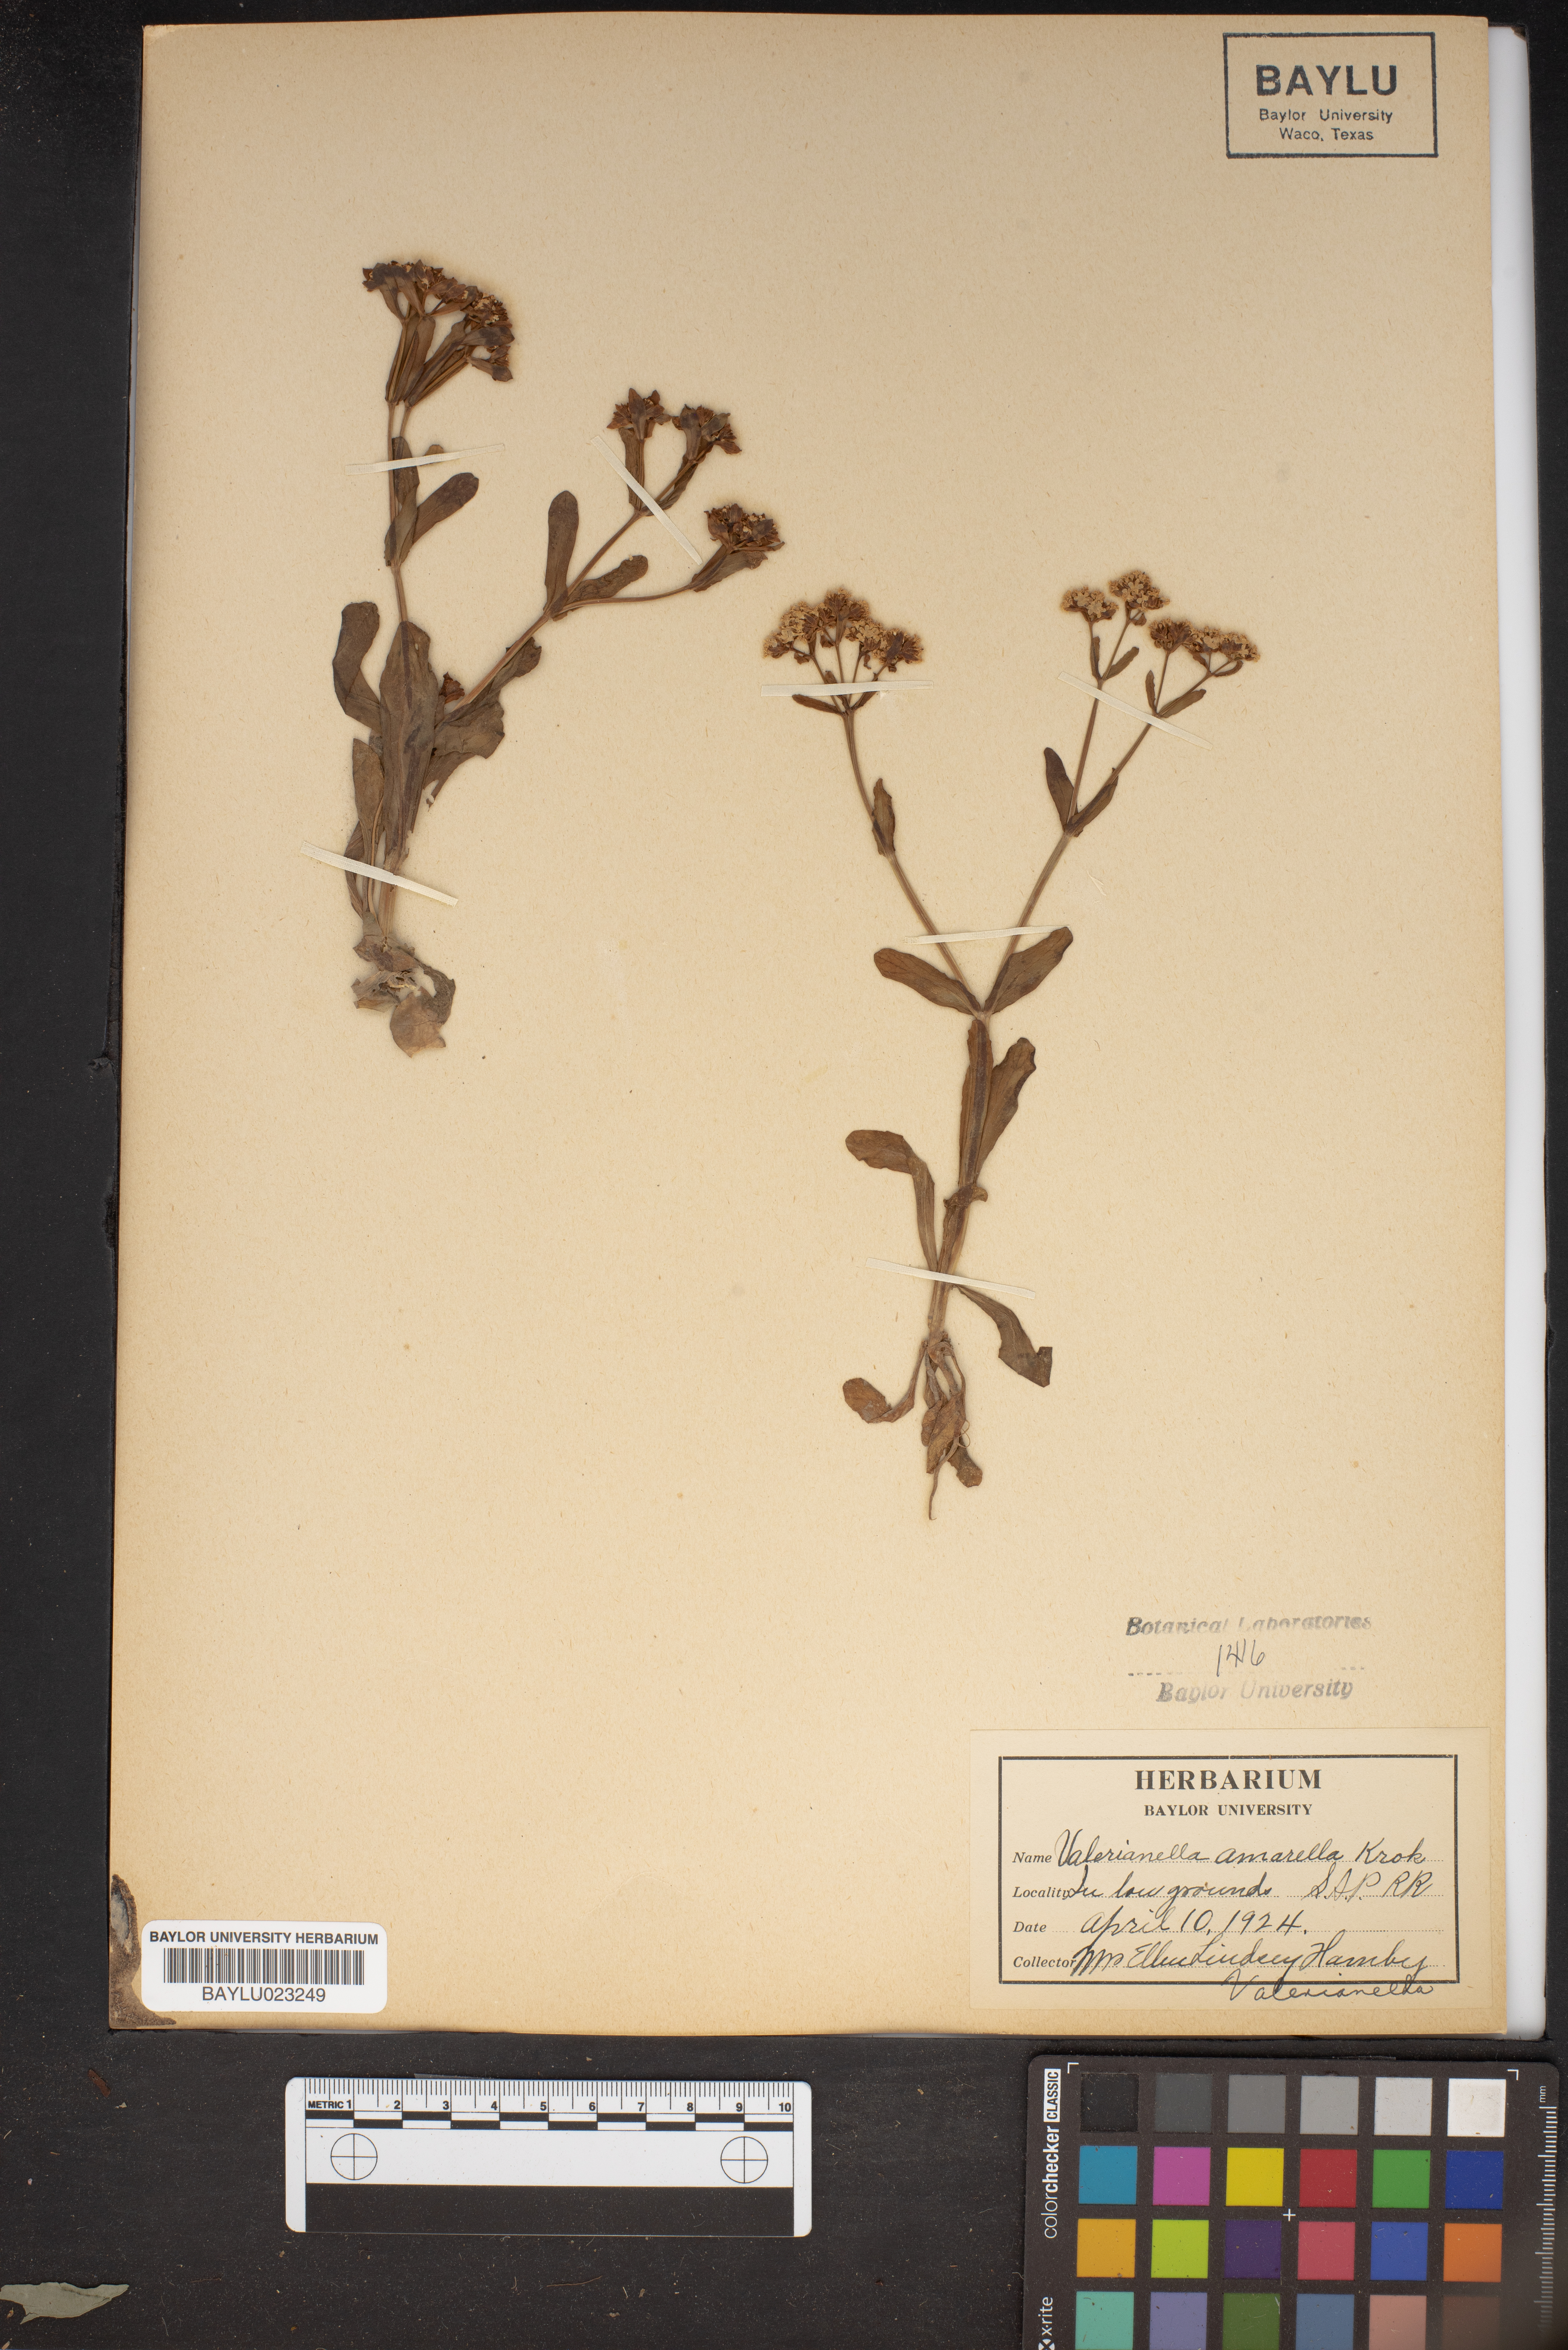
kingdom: Plantae
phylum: Tracheophyta
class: Magnoliopsida
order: Dipsacales
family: Caprifoliaceae
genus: Valerianella
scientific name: Valerianella amarella
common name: Hariy cornsalad
